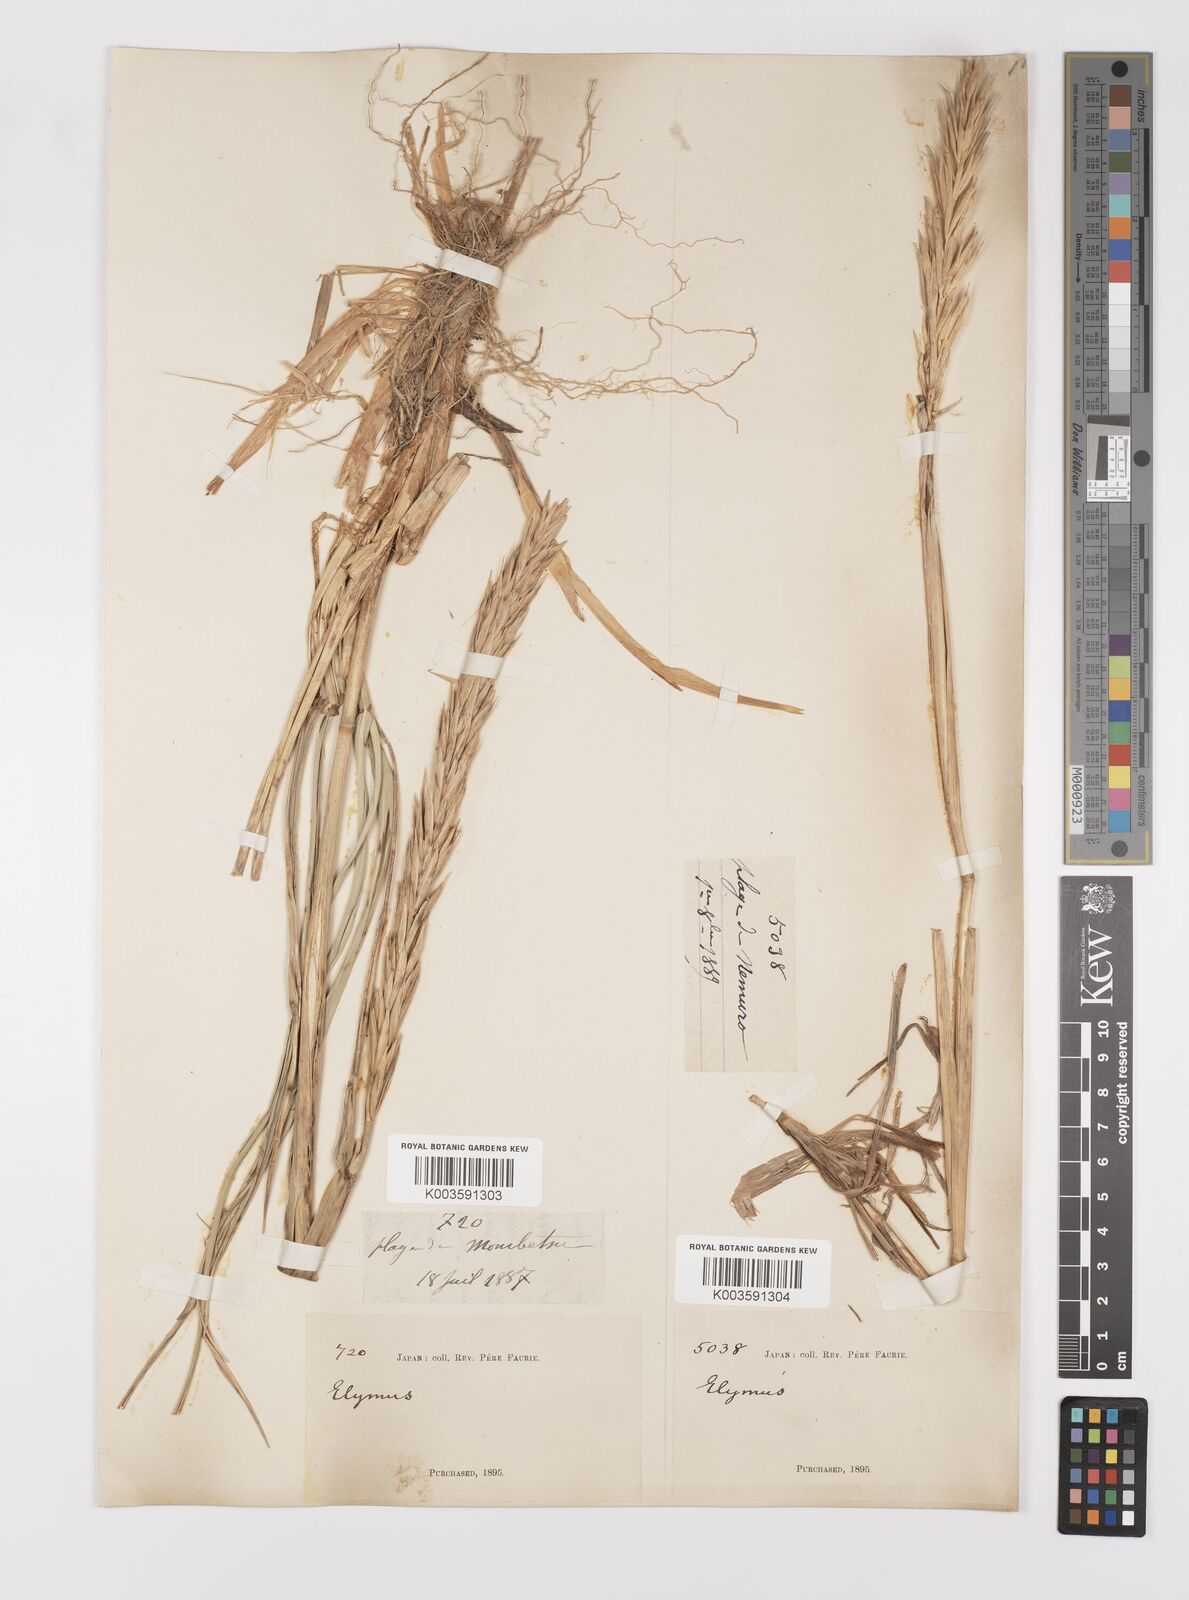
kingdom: Plantae
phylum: Tracheophyta
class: Liliopsida
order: Poales
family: Poaceae
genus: Leymus
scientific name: Leymus
